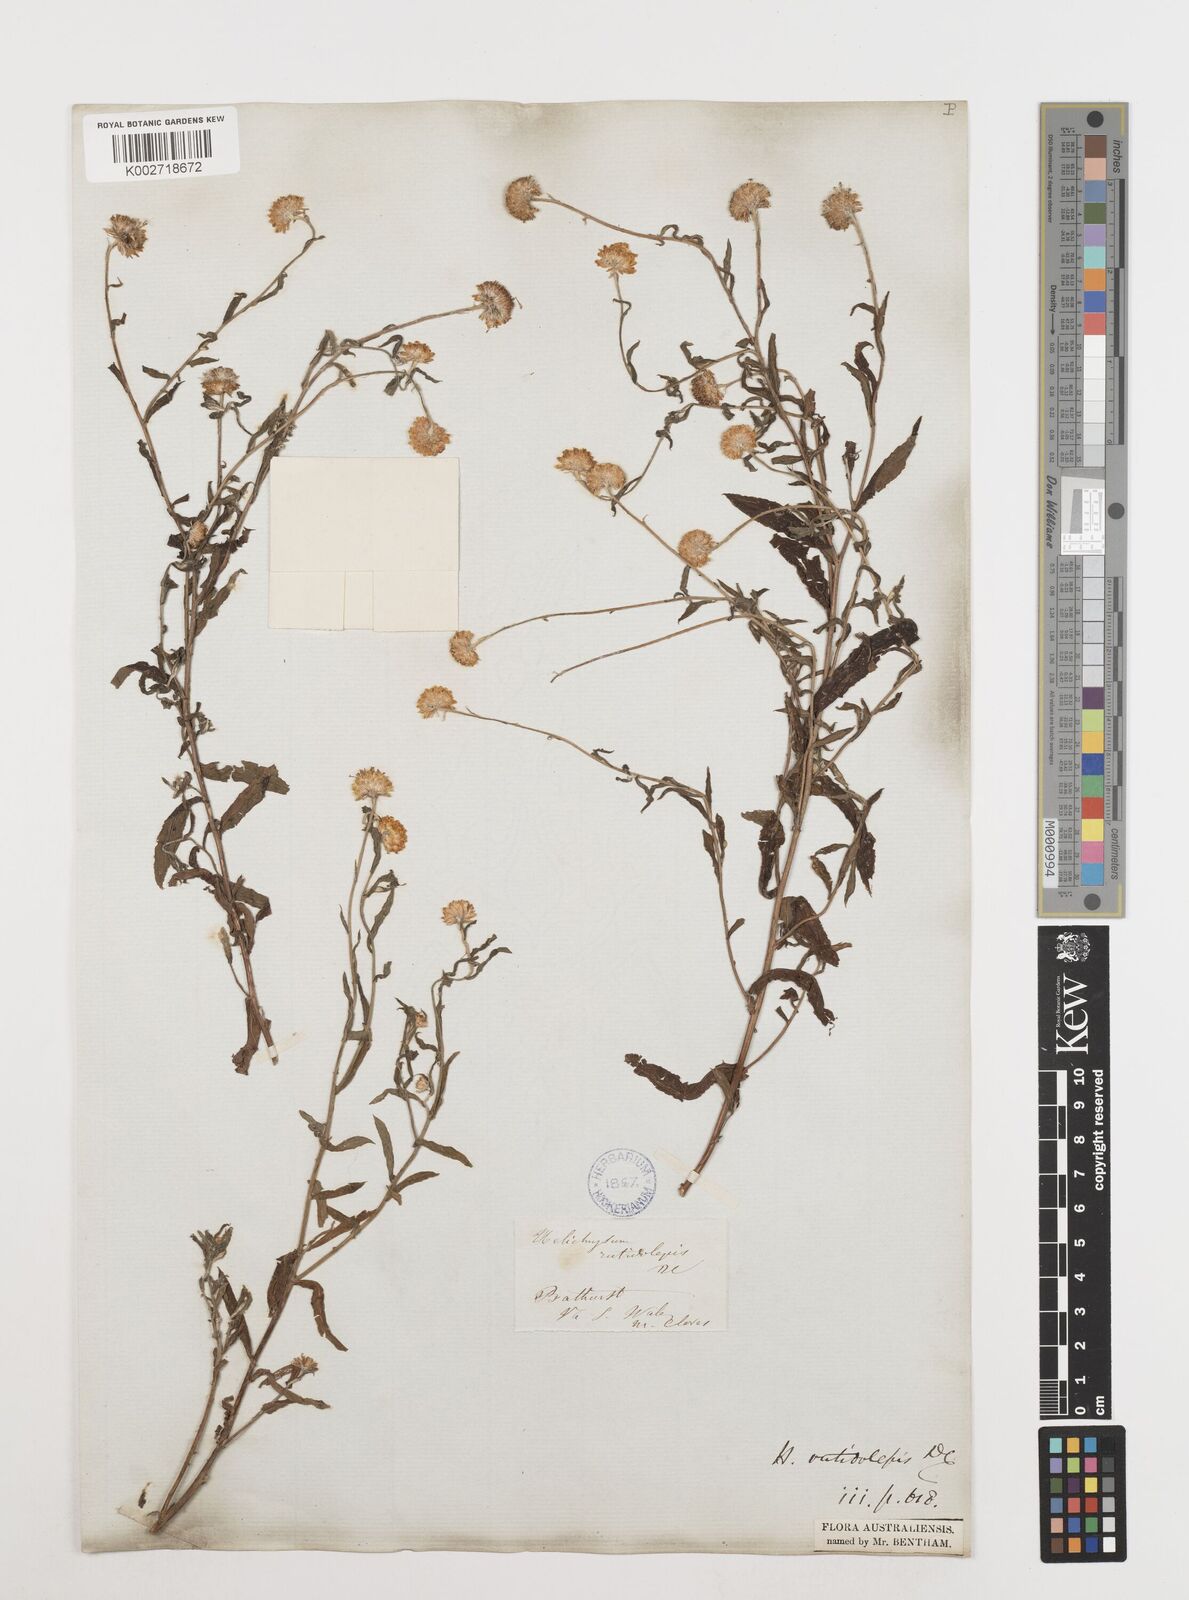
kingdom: Plantae
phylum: Tracheophyta
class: Magnoliopsida
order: Asterales
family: Asteraceae
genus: Coronidium
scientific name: Coronidium rutidolepis
